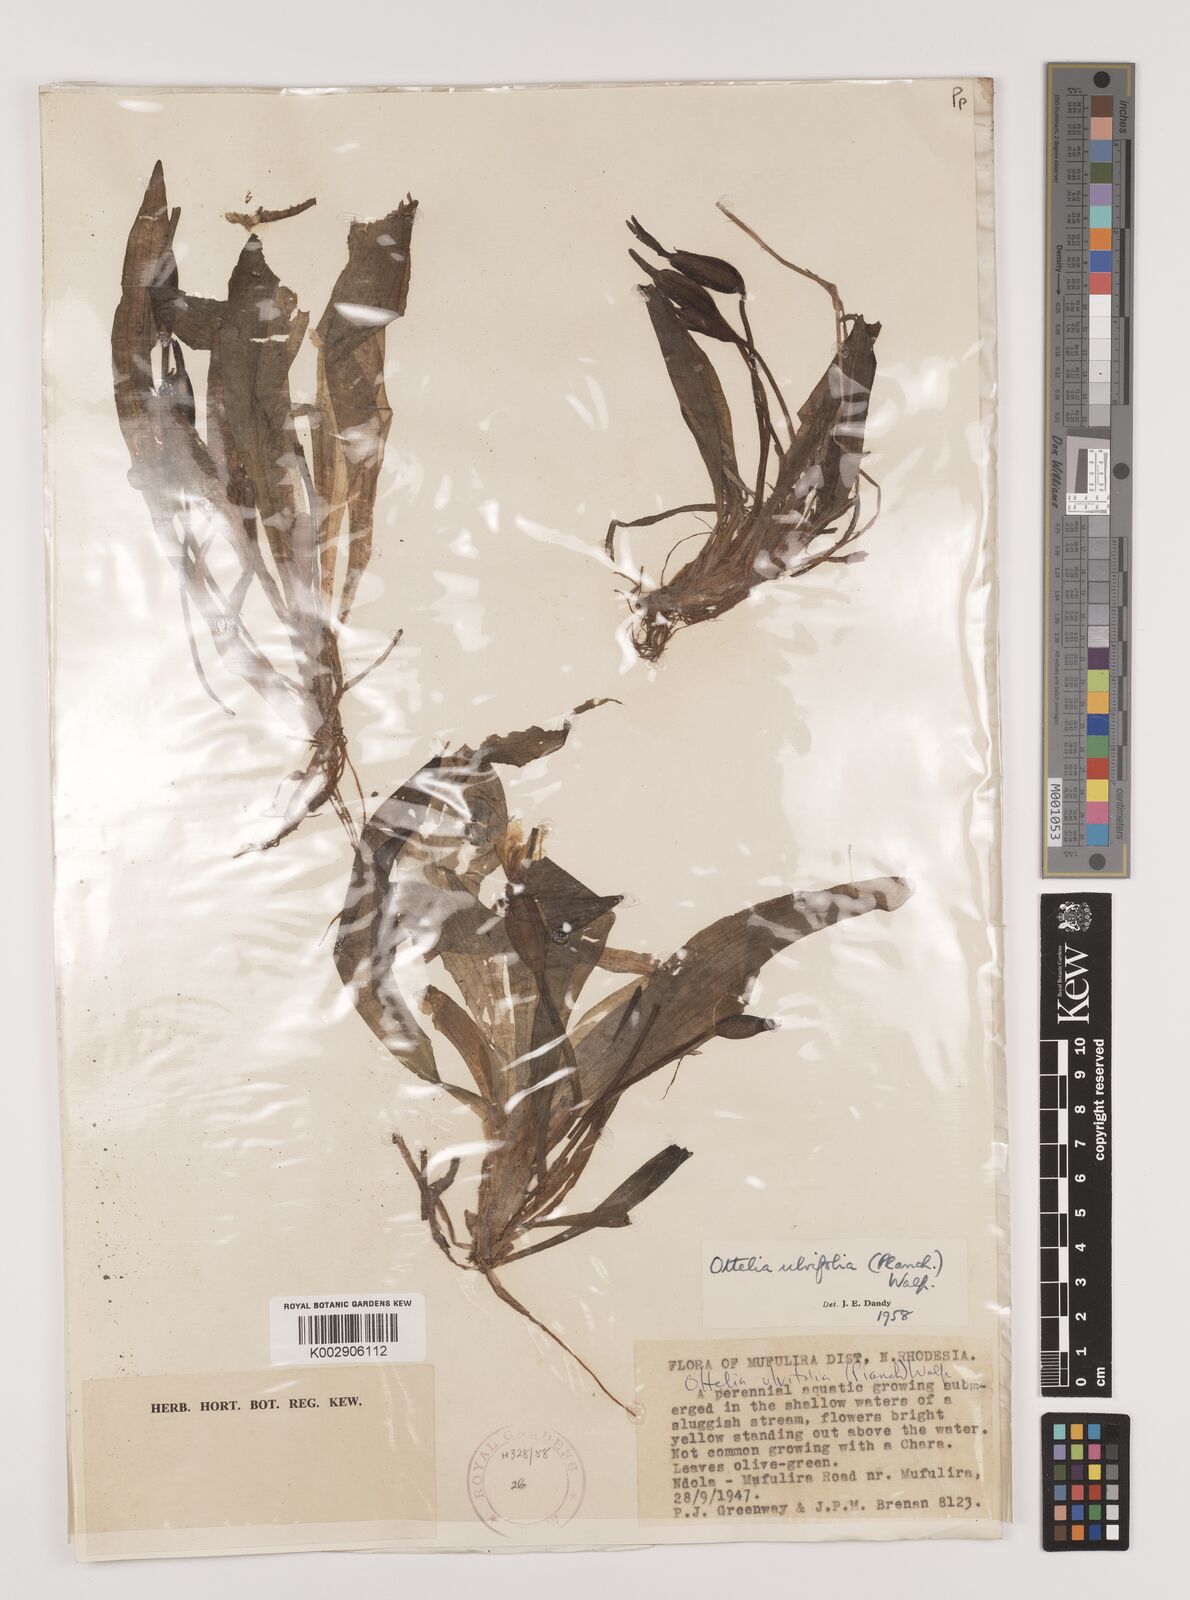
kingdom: Plantae
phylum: Tracheophyta
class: Liliopsida
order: Alismatales
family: Hydrocharitaceae
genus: Ottelia
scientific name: Ottelia ulvifolia
